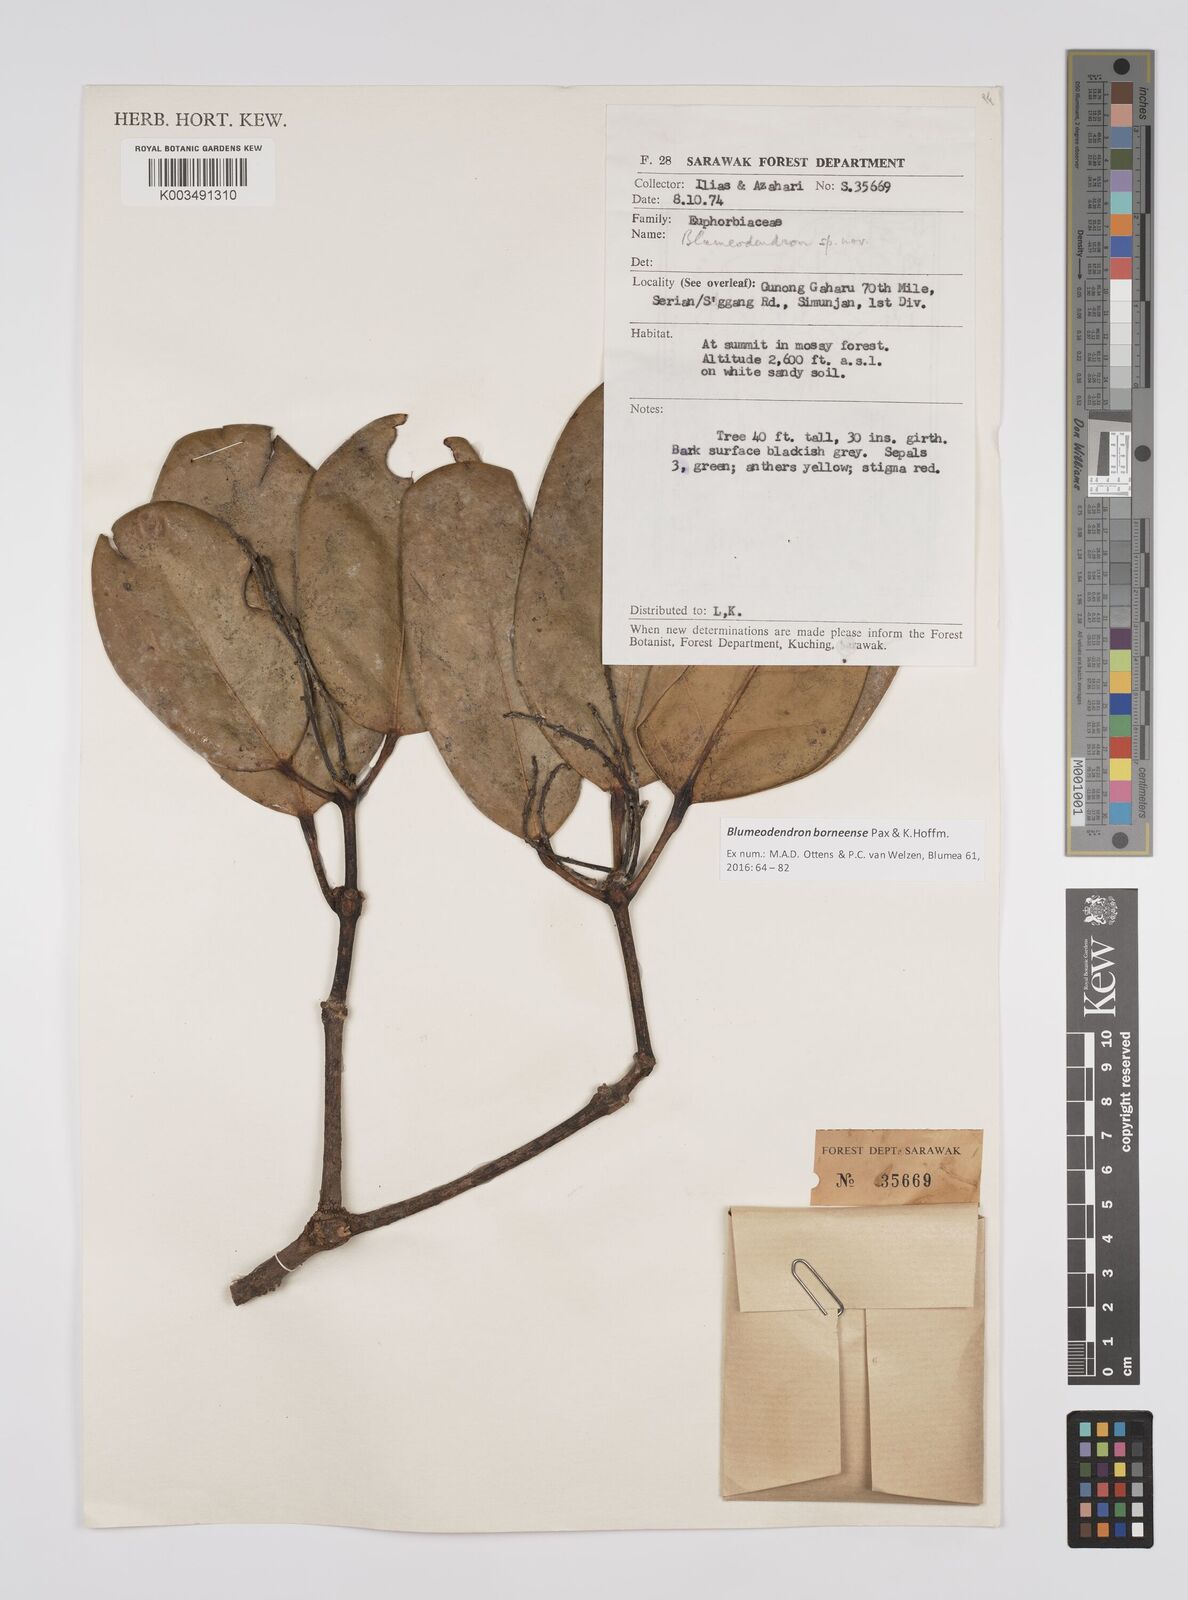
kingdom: Plantae
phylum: Tracheophyta
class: Magnoliopsida
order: Malpighiales
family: Euphorbiaceae
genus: Blumeodendron
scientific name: Blumeodendron borneense
